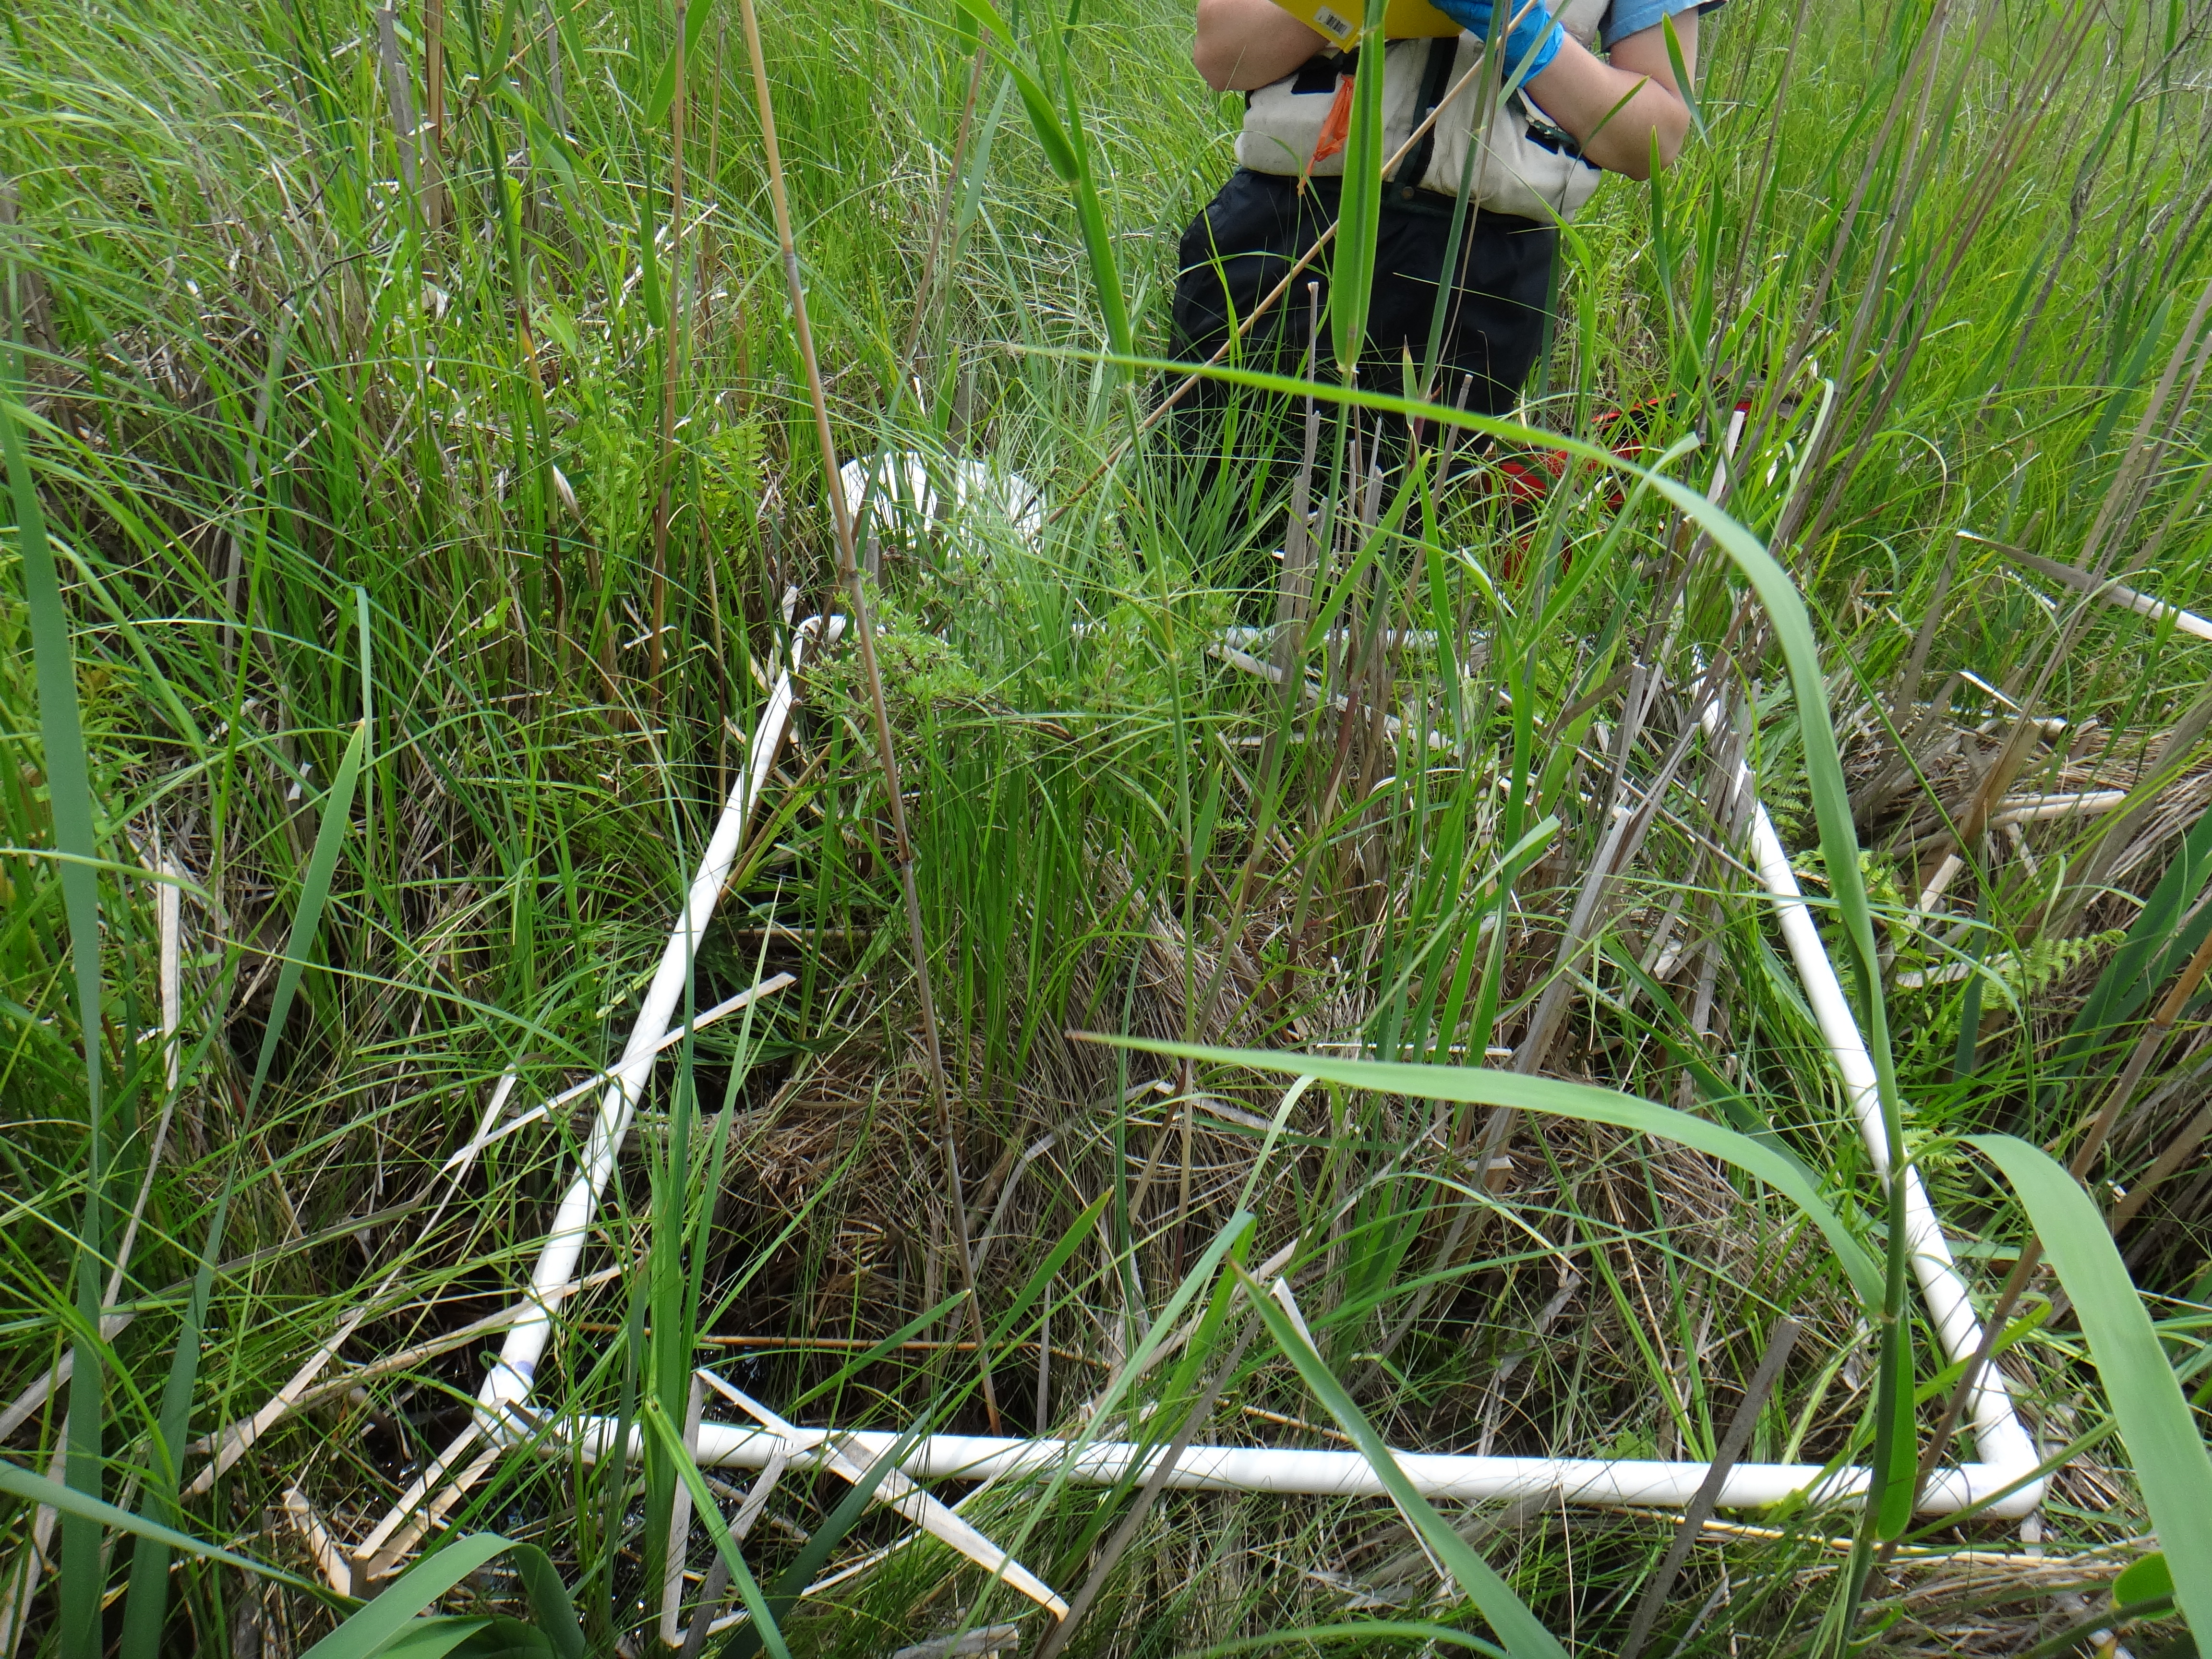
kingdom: Plantae
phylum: Tracheophyta
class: Liliopsida
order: Poales
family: Poaceae
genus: Phragmites
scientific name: Phragmites australis
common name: Common reed
